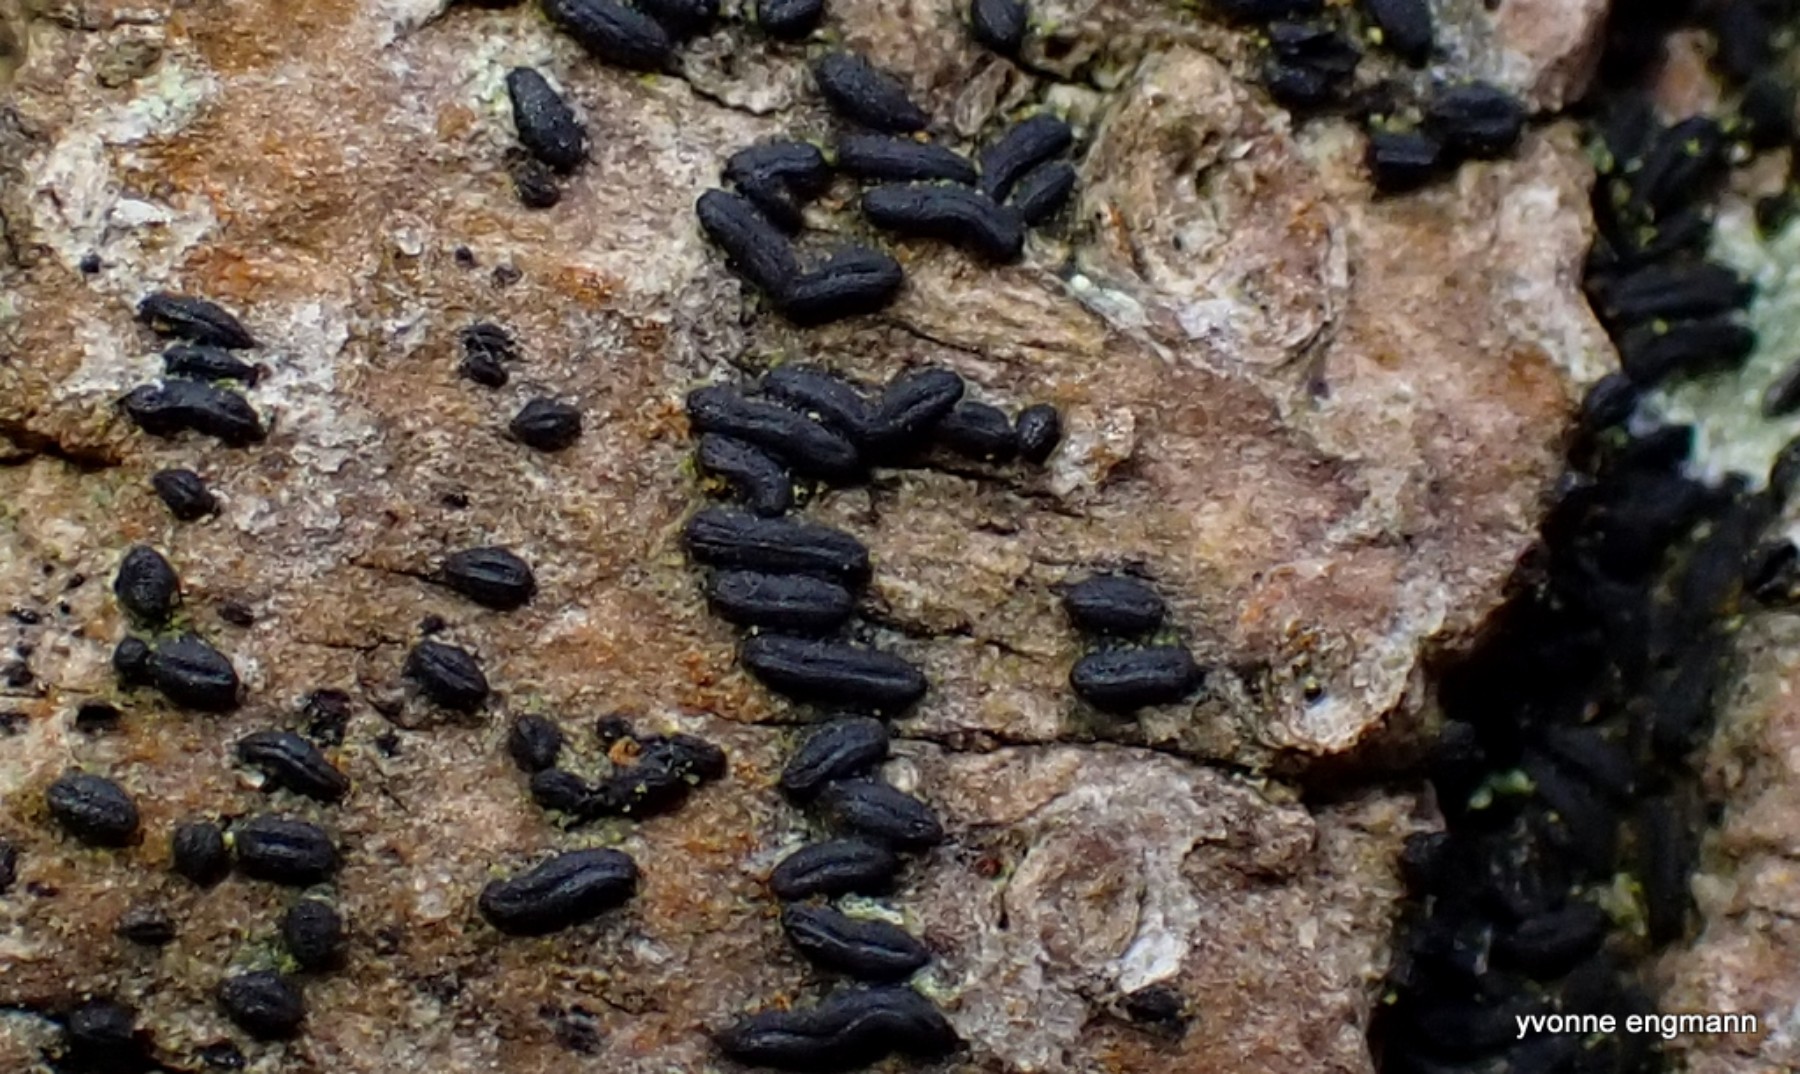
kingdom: Fungi
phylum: Ascomycota
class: Dothideomycetes
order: Hysteriales
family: Hysteriaceae
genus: Hysterium
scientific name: Hysterium acuminatum
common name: almindelig kulmund
